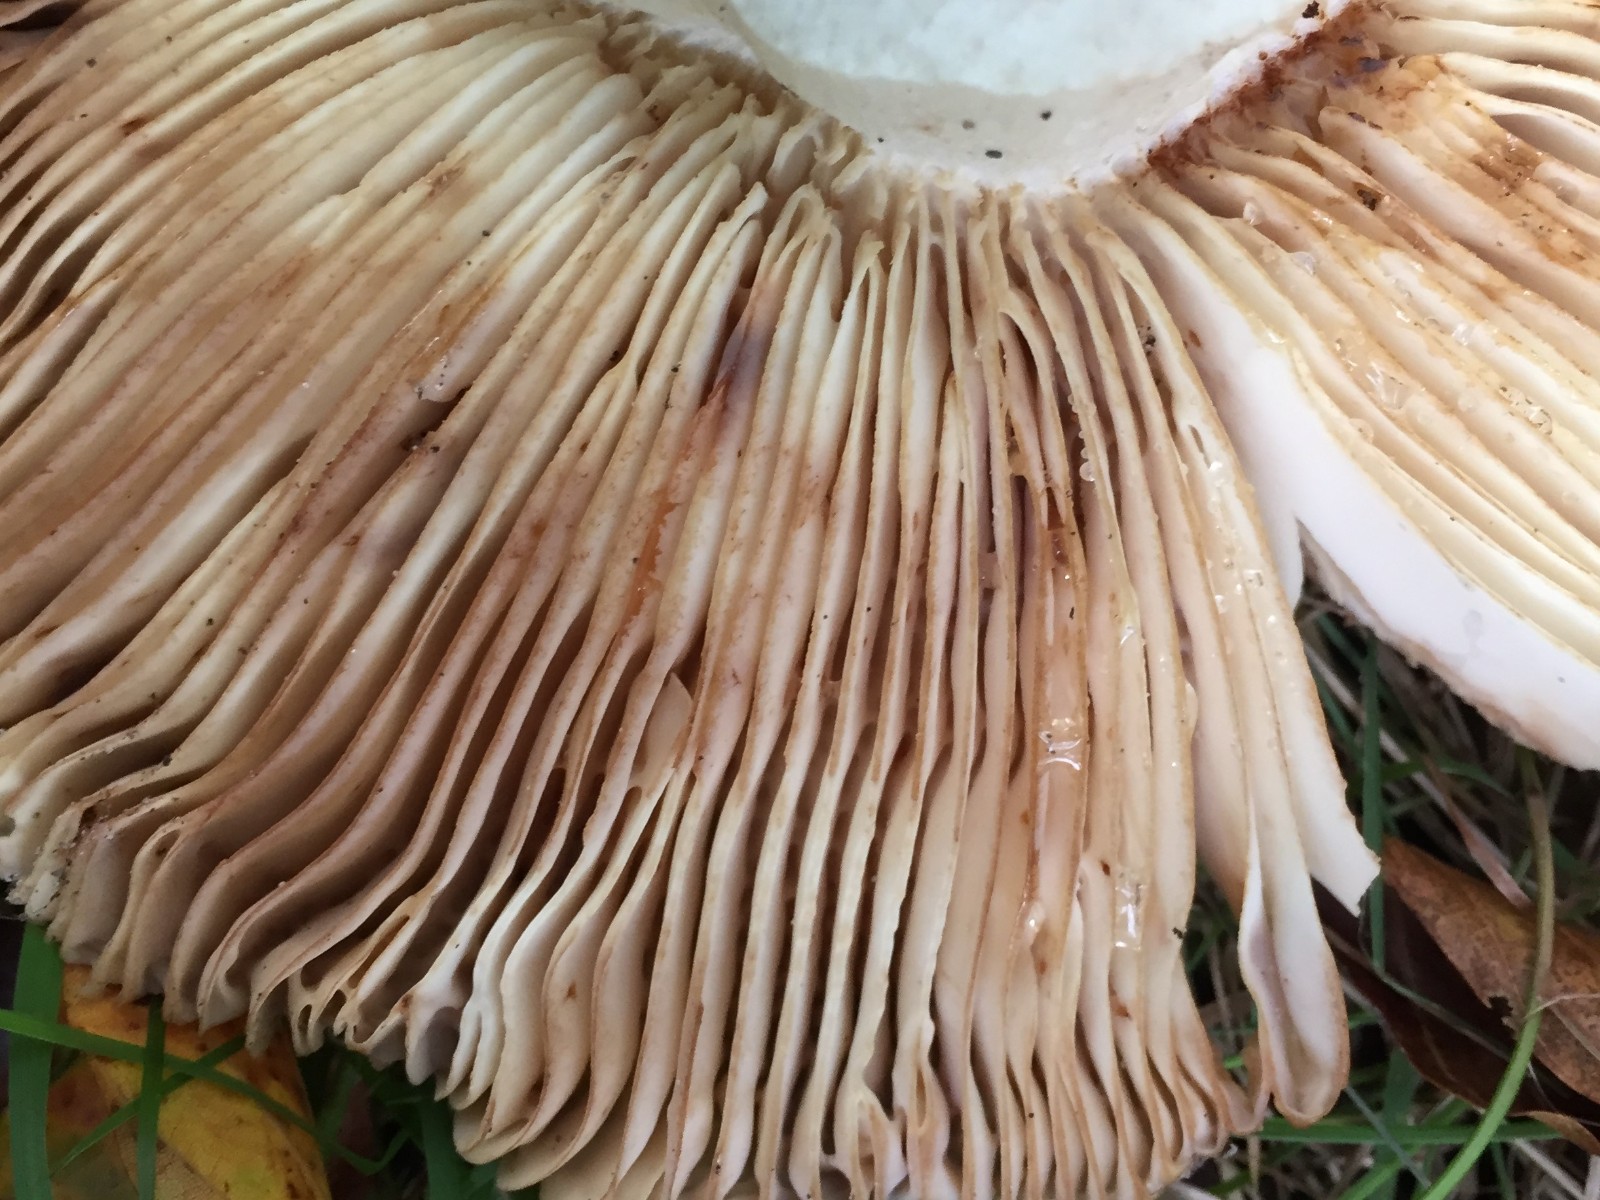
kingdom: Fungi
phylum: Basidiomycota
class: Agaricomycetes
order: Russulales
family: Russulaceae
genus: Russula
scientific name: Russula illota
